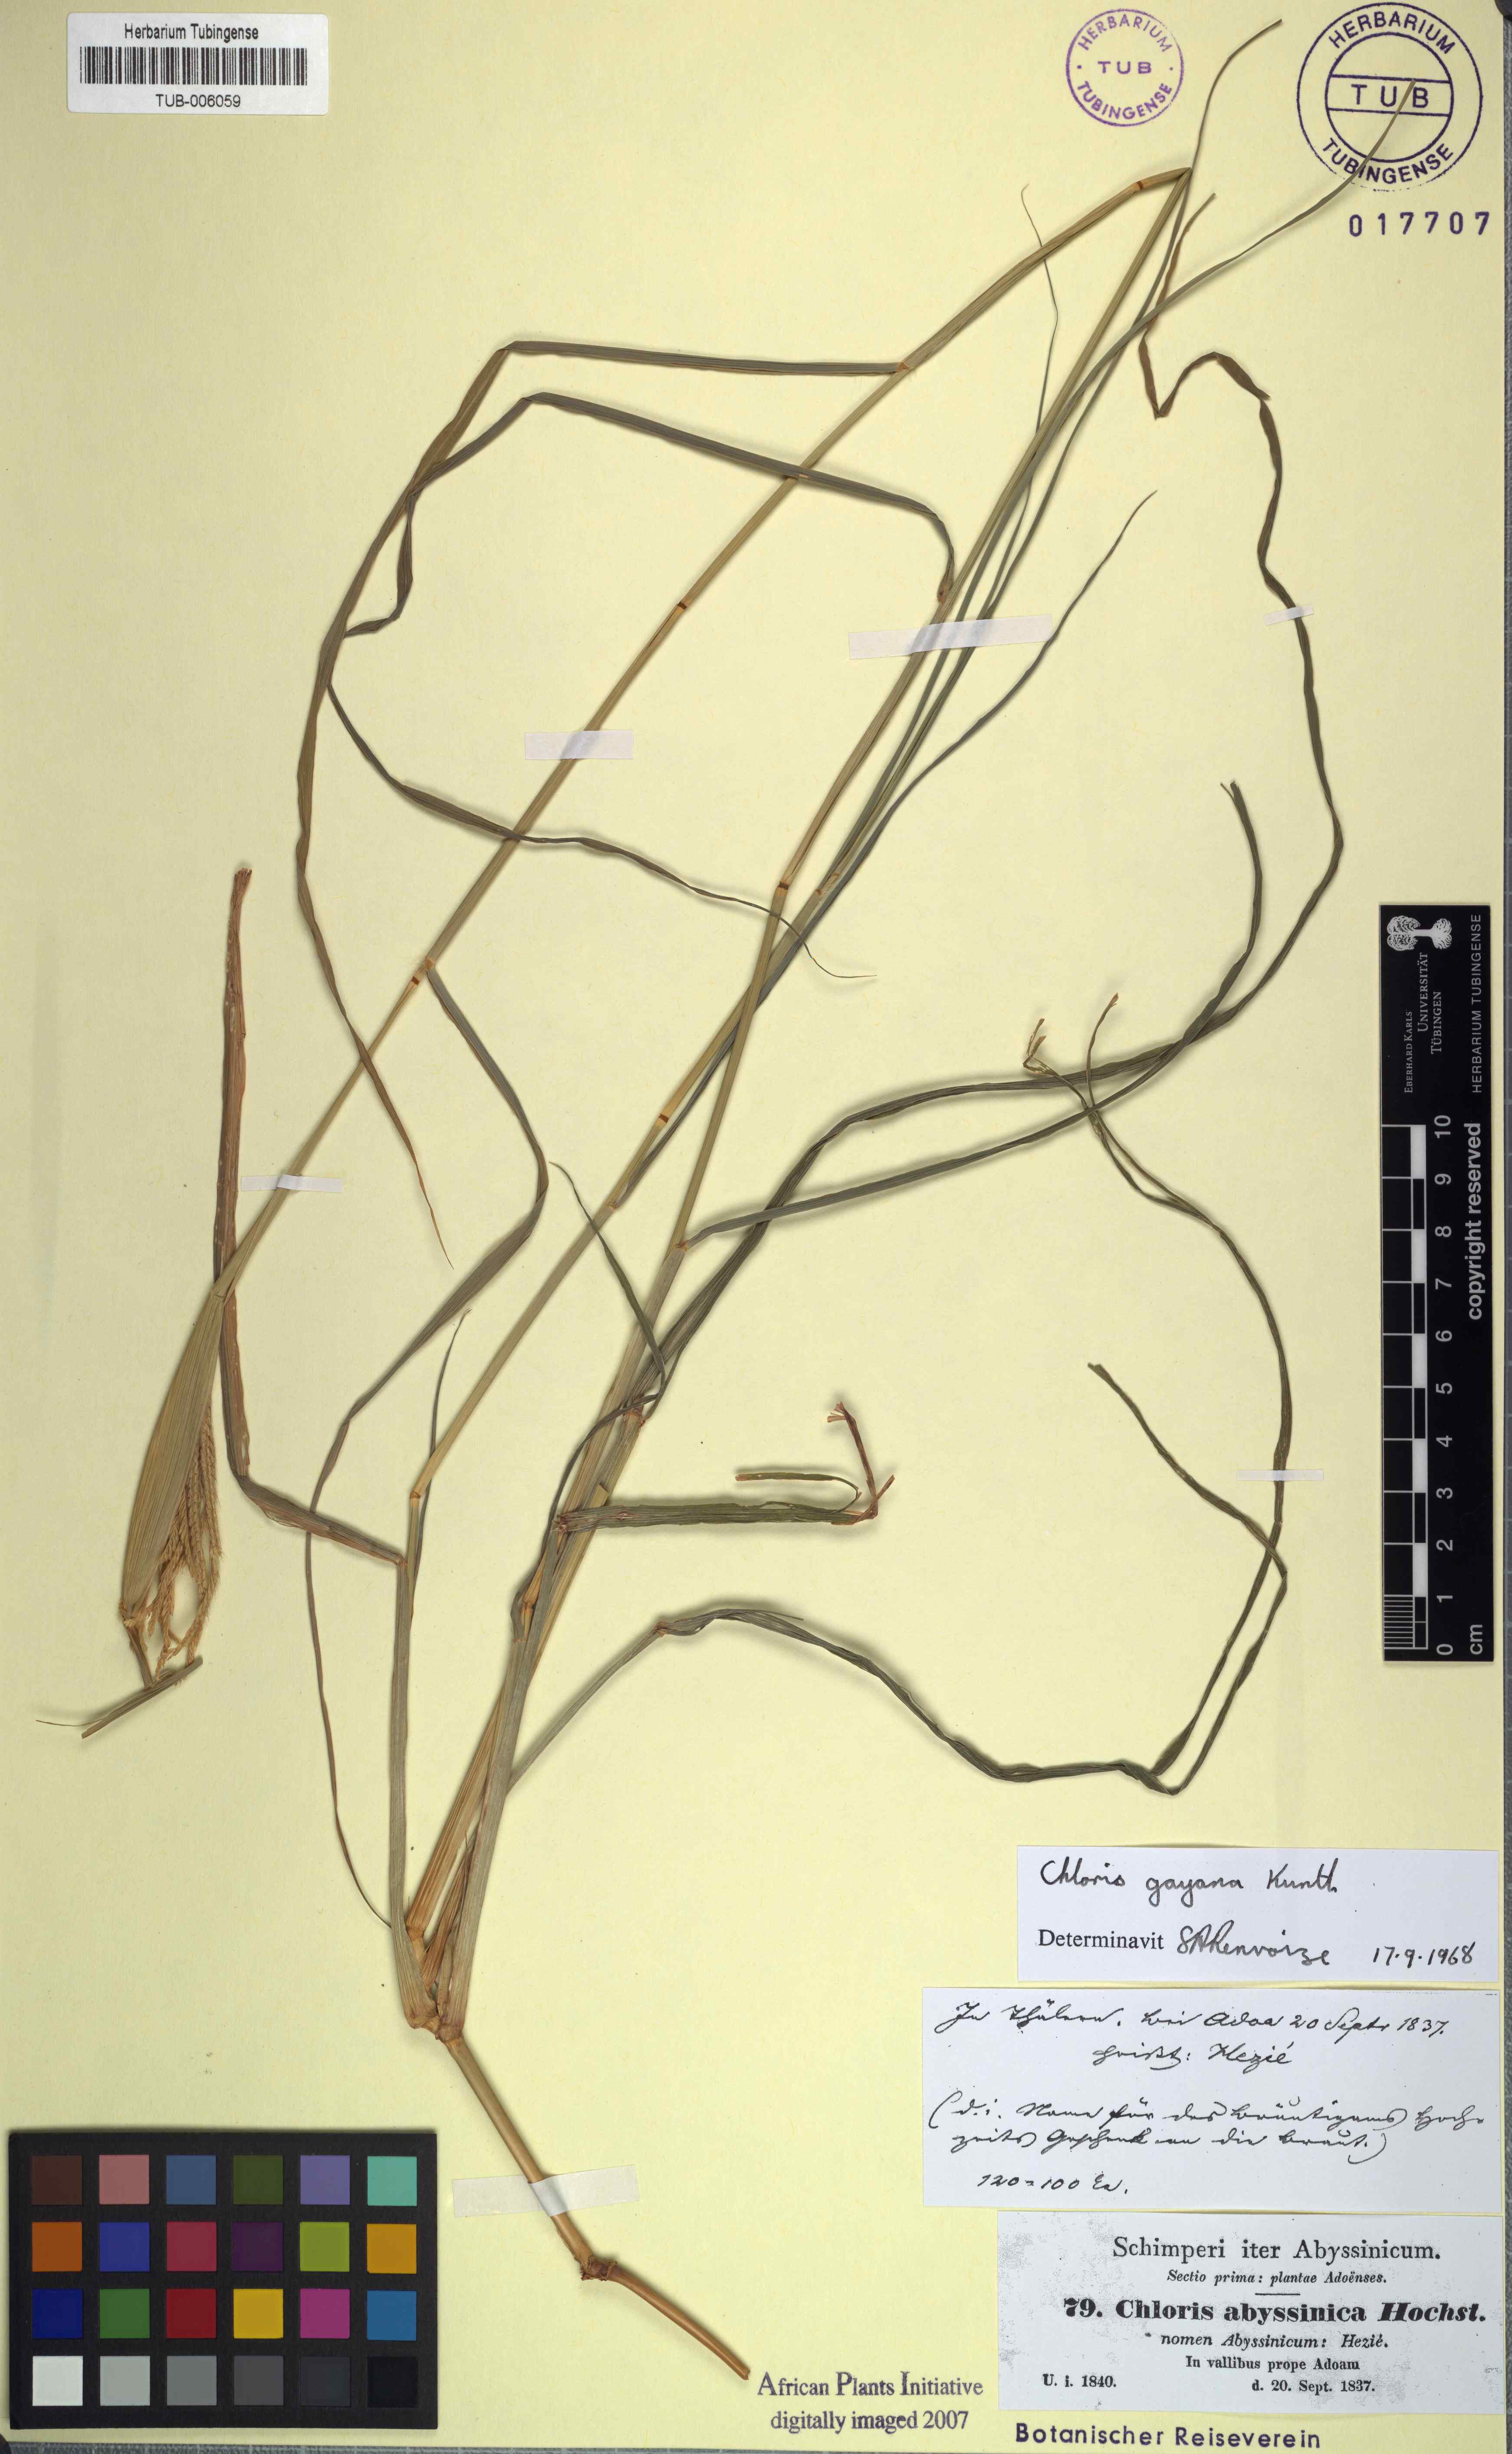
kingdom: Plantae
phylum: Tracheophyta
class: Liliopsida
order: Poales
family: Poaceae
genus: Chloris
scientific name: Chloris gayana
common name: Rhodes grass
